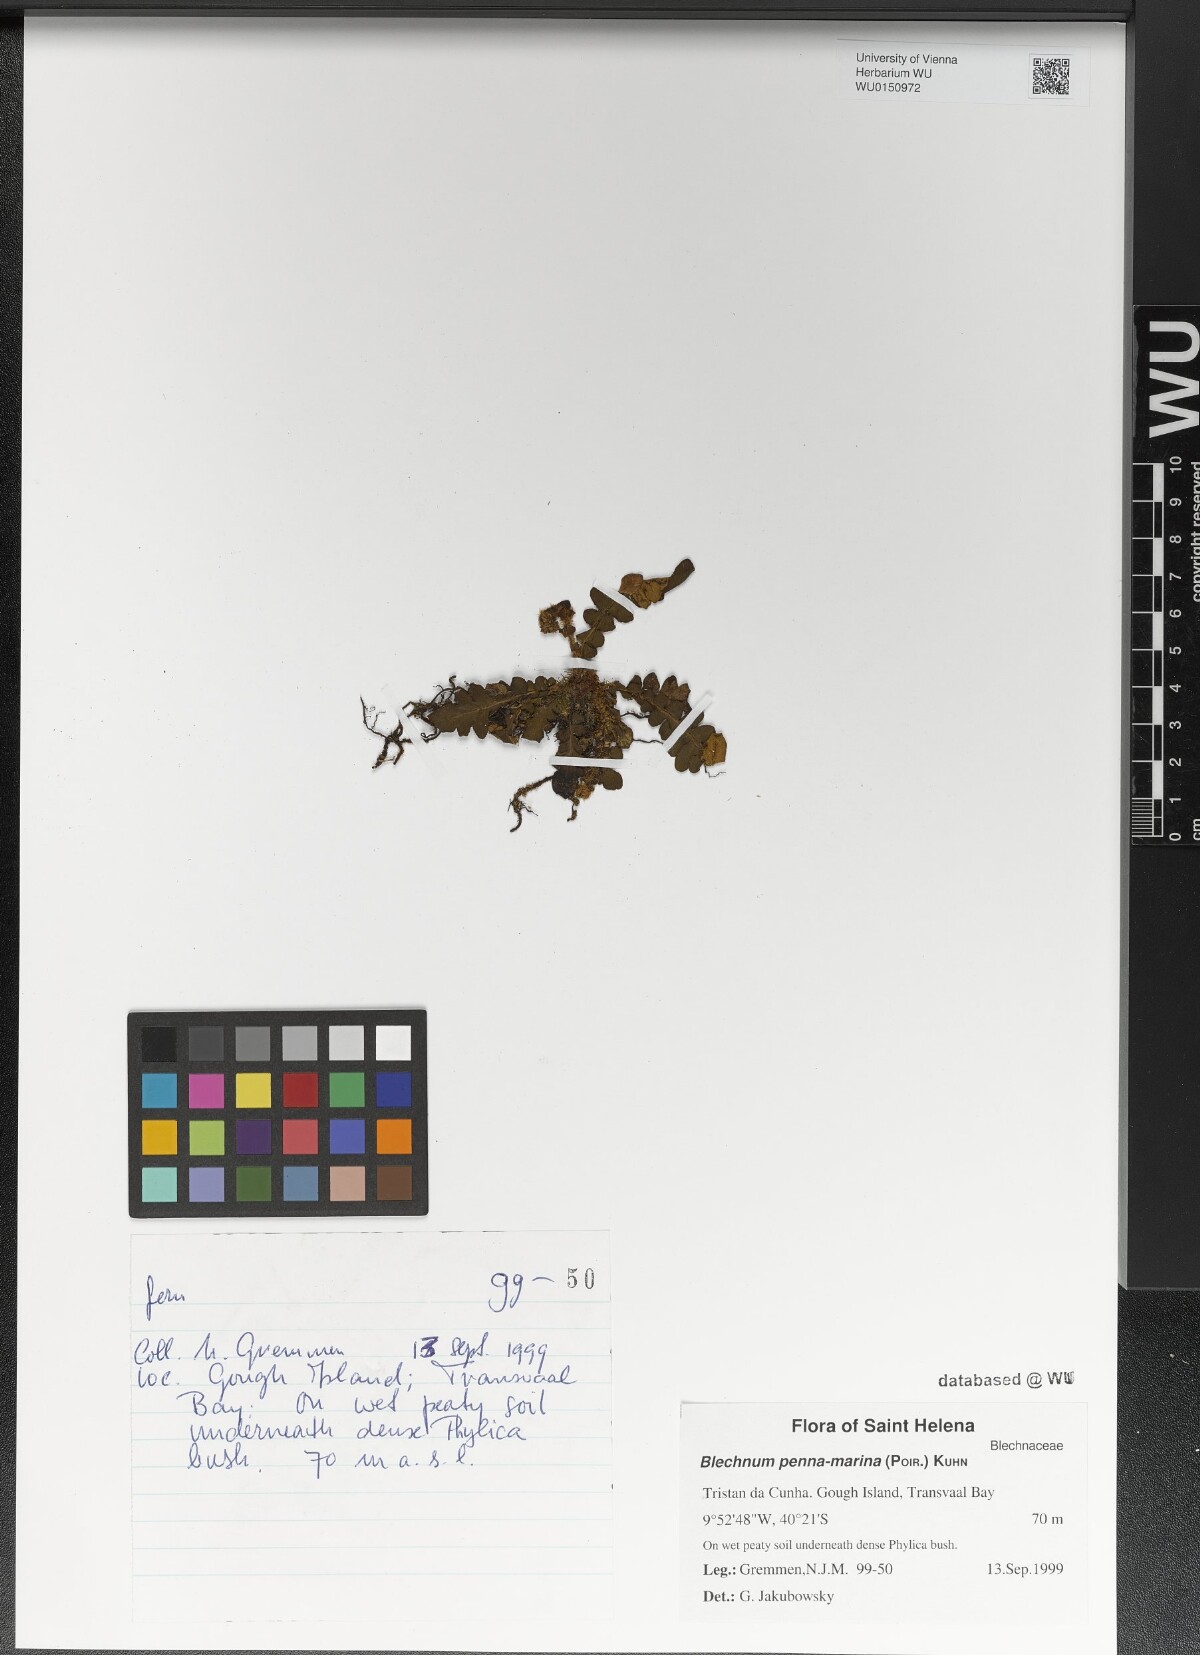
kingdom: Plantae
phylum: Tracheophyta
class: Polypodiopsida
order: Polypodiales
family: Blechnaceae
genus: Austroblechnum
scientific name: Austroblechnum penna-marina
